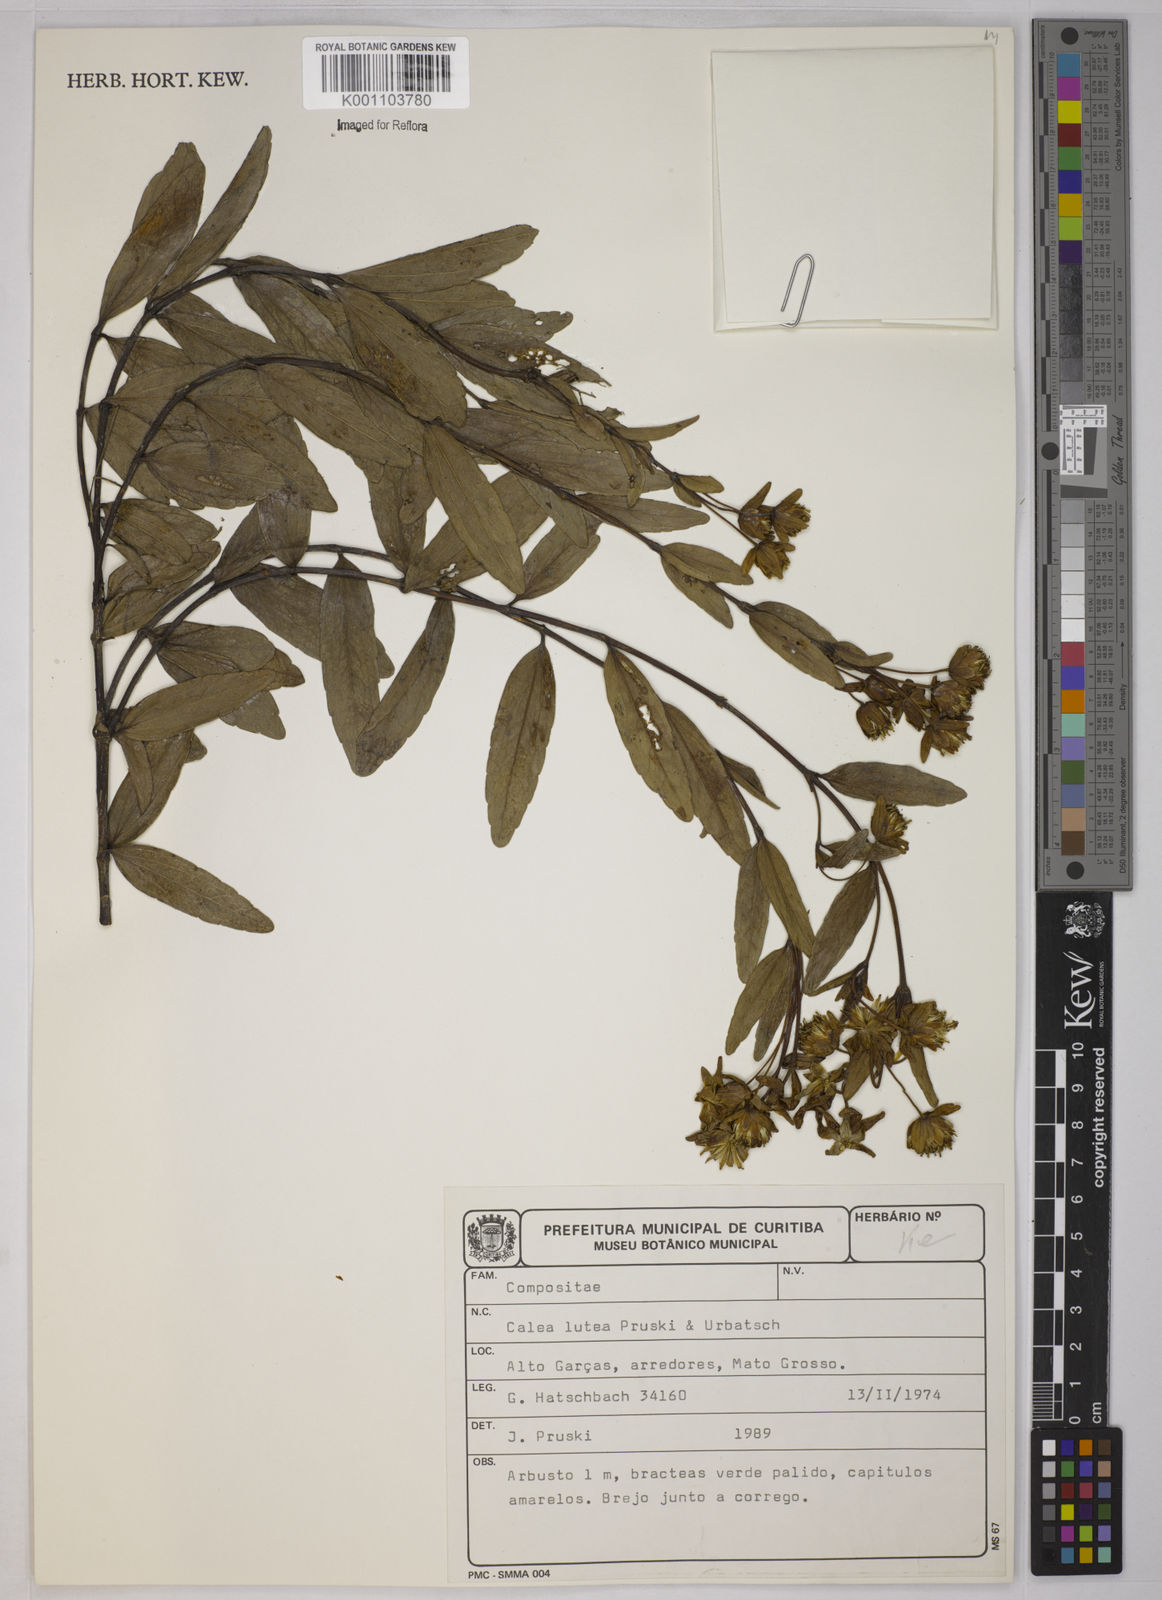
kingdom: Plantae
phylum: Tracheophyta
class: Magnoliopsida
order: Asterales
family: Asteraceae
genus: Calea
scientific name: Calea lutea
